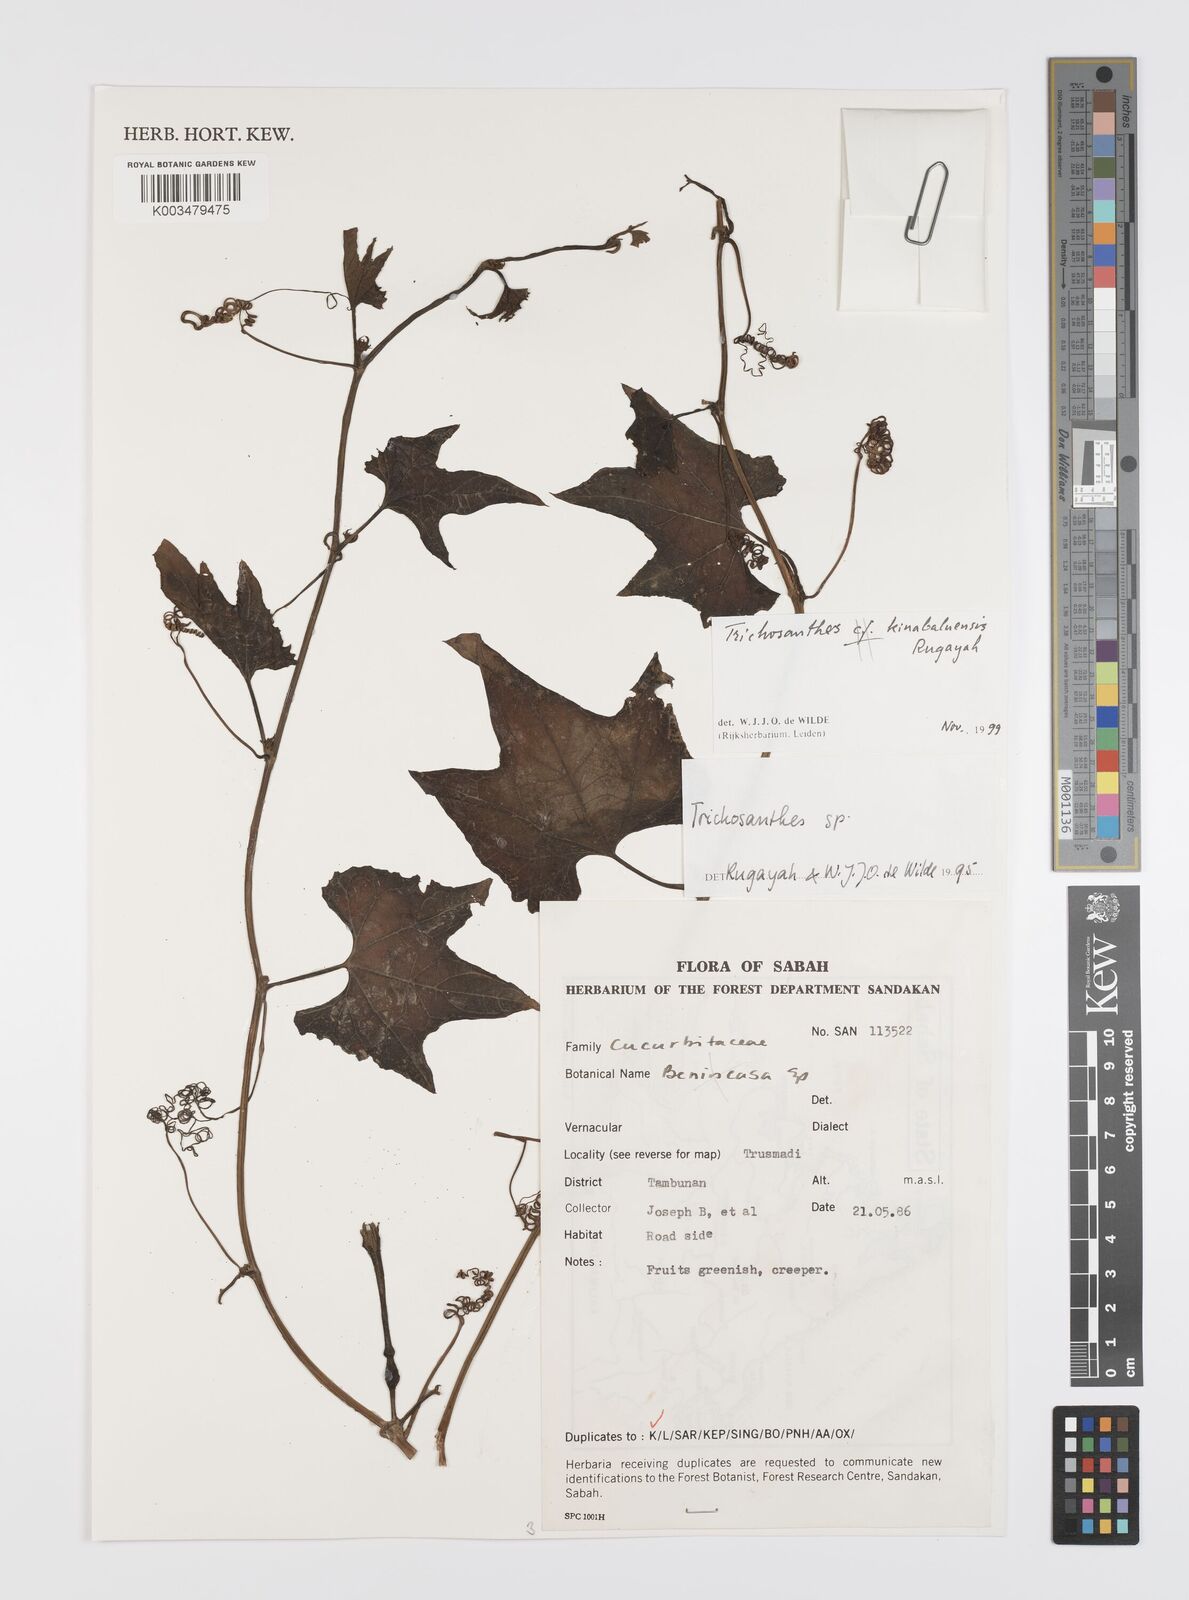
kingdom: Plantae
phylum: Tracheophyta
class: Magnoliopsida
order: Cucurbitales
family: Cucurbitaceae
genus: Trichosanthes
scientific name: Trichosanthes kinabaluensis
